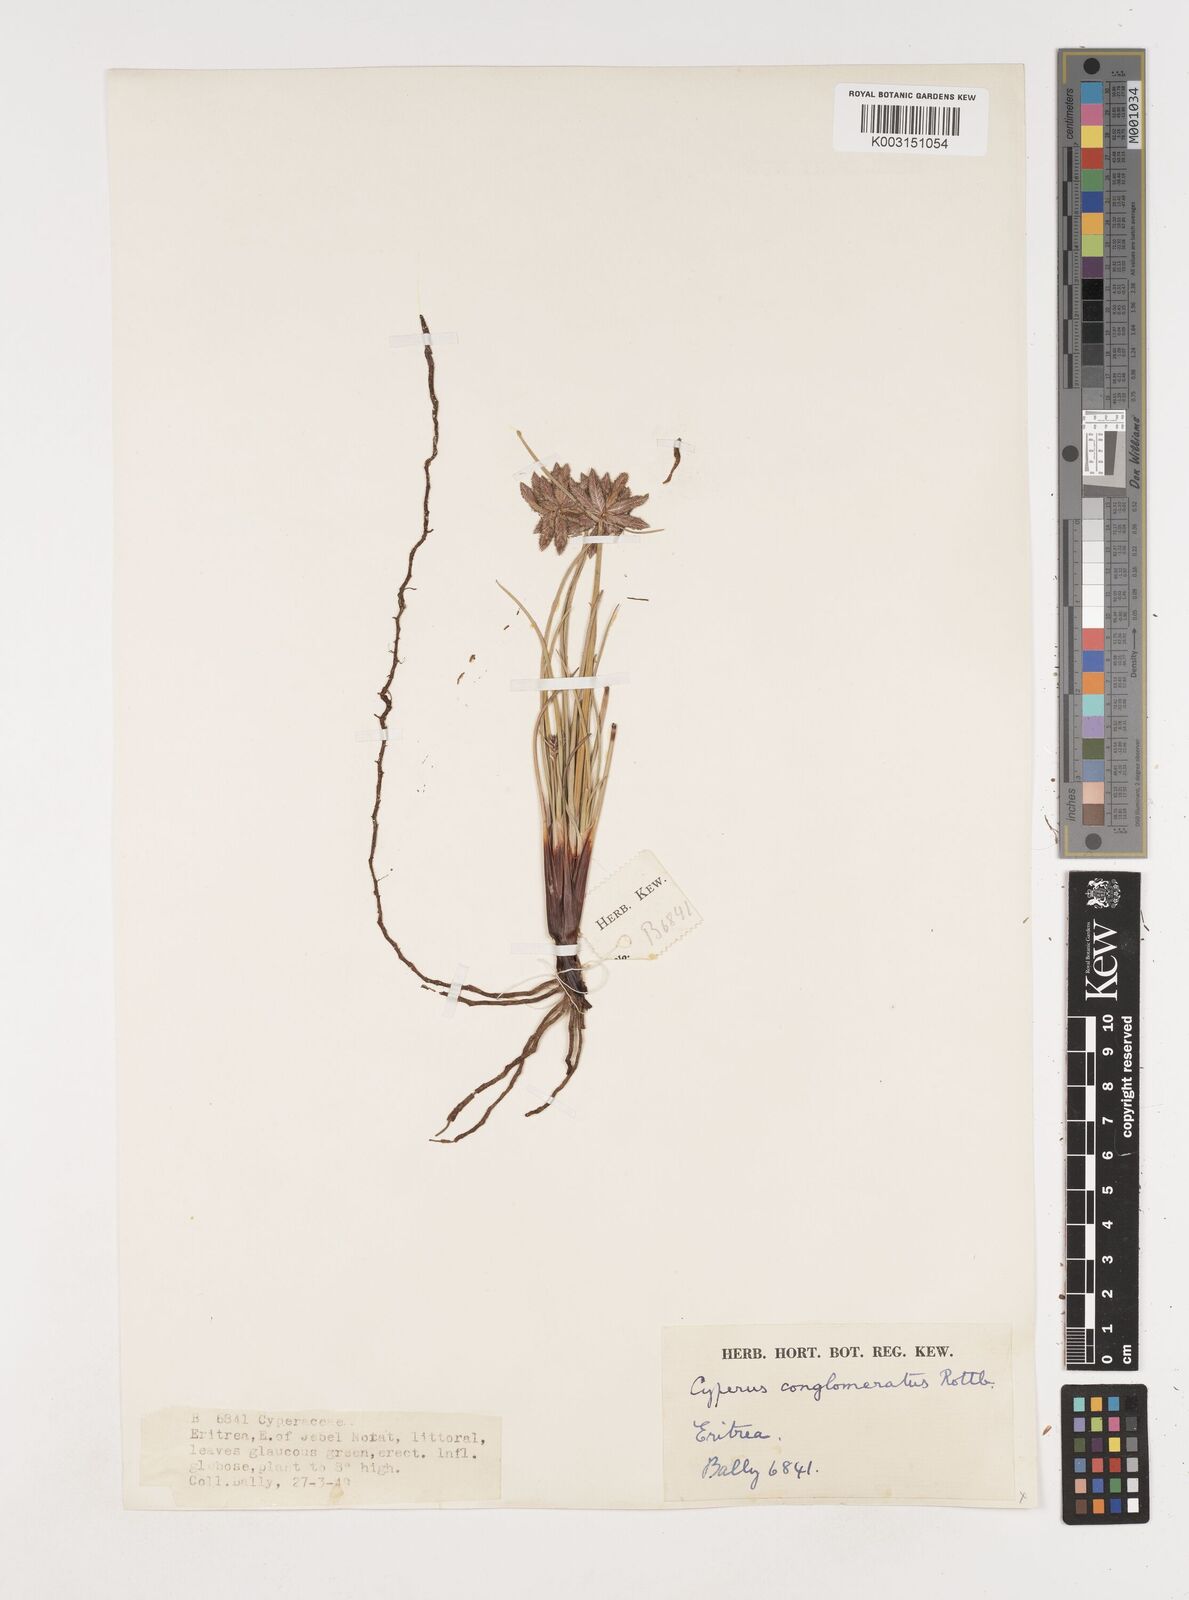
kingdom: Plantae
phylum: Tracheophyta
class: Liliopsida
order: Poales
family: Cyperaceae
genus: Cyperus
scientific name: Cyperus conglomeratus
